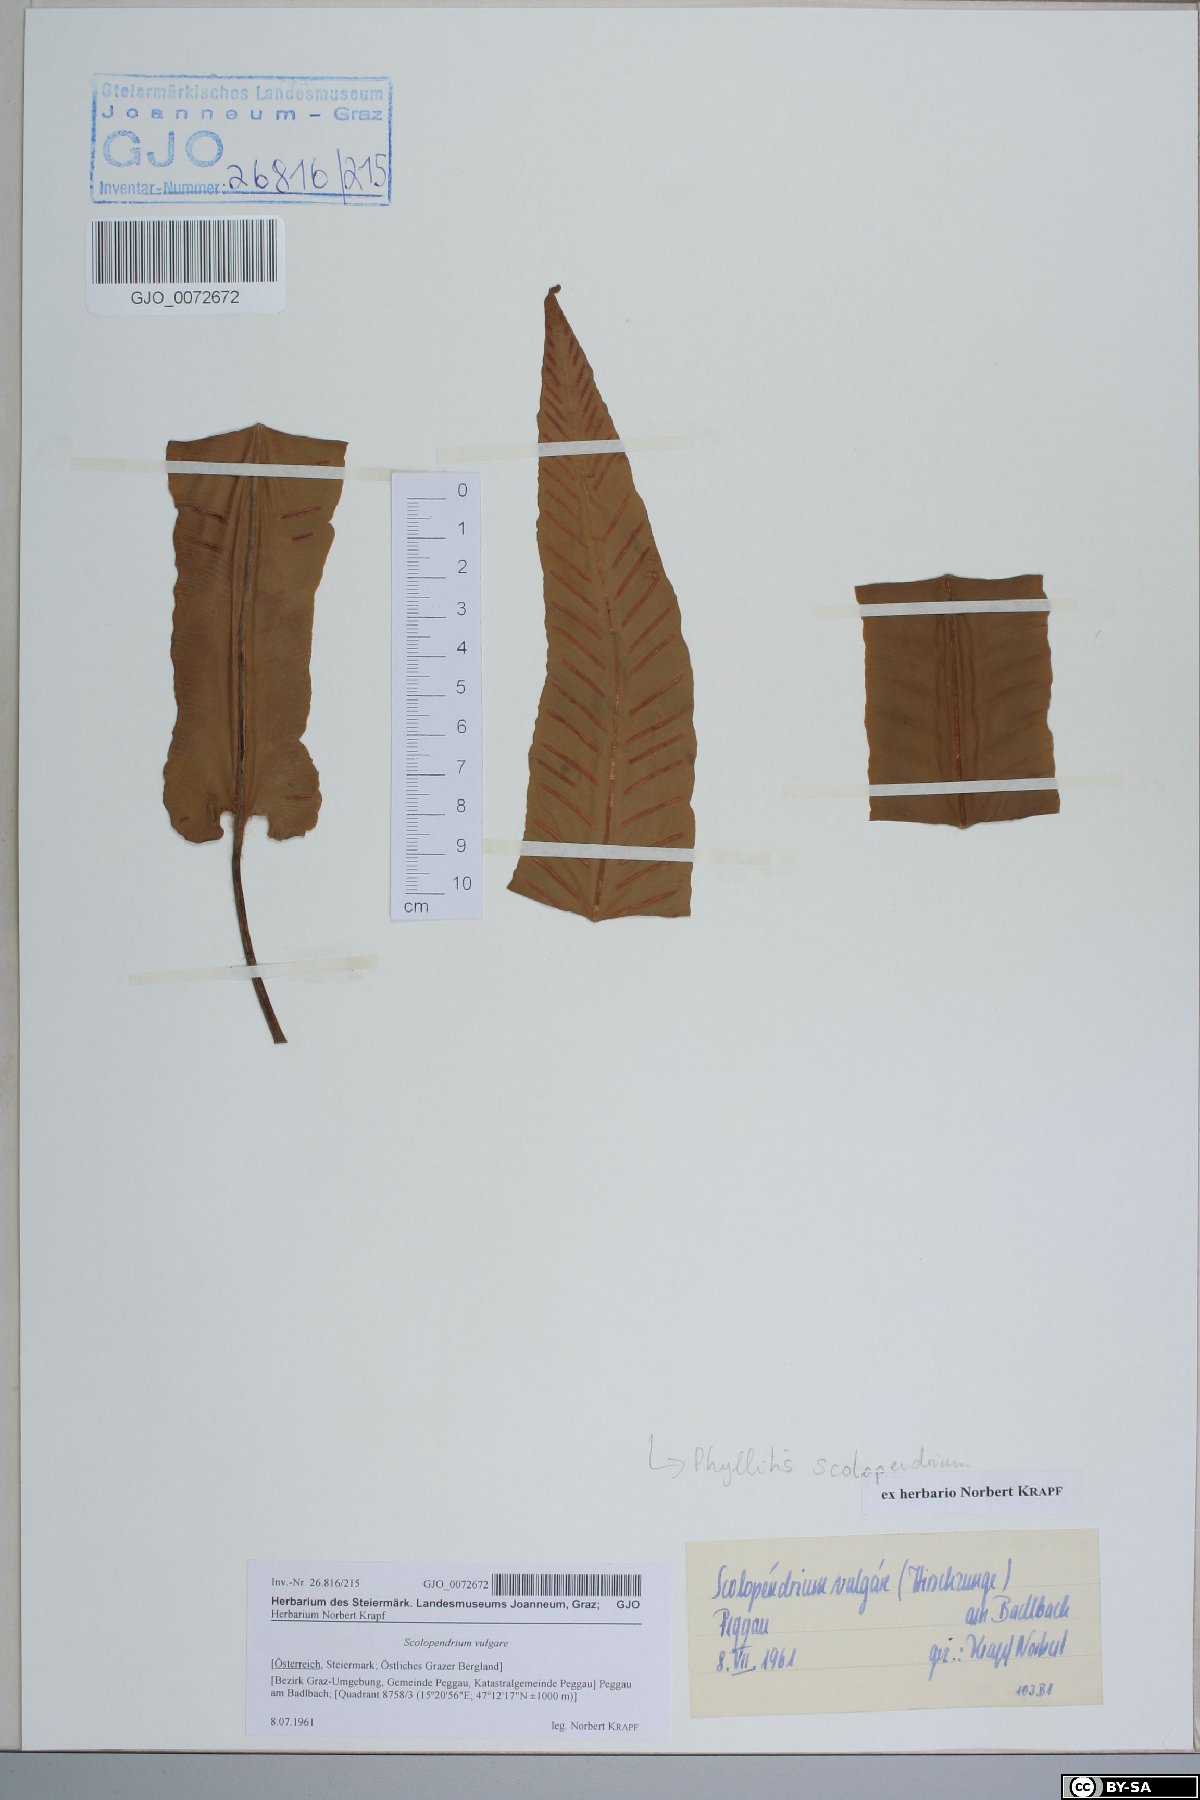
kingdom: Plantae
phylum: Tracheophyta
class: Polypodiopsida
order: Polypodiales
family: Aspleniaceae
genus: Asplenium
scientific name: Asplenium scolopendrium
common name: Hart's-tongue fern
